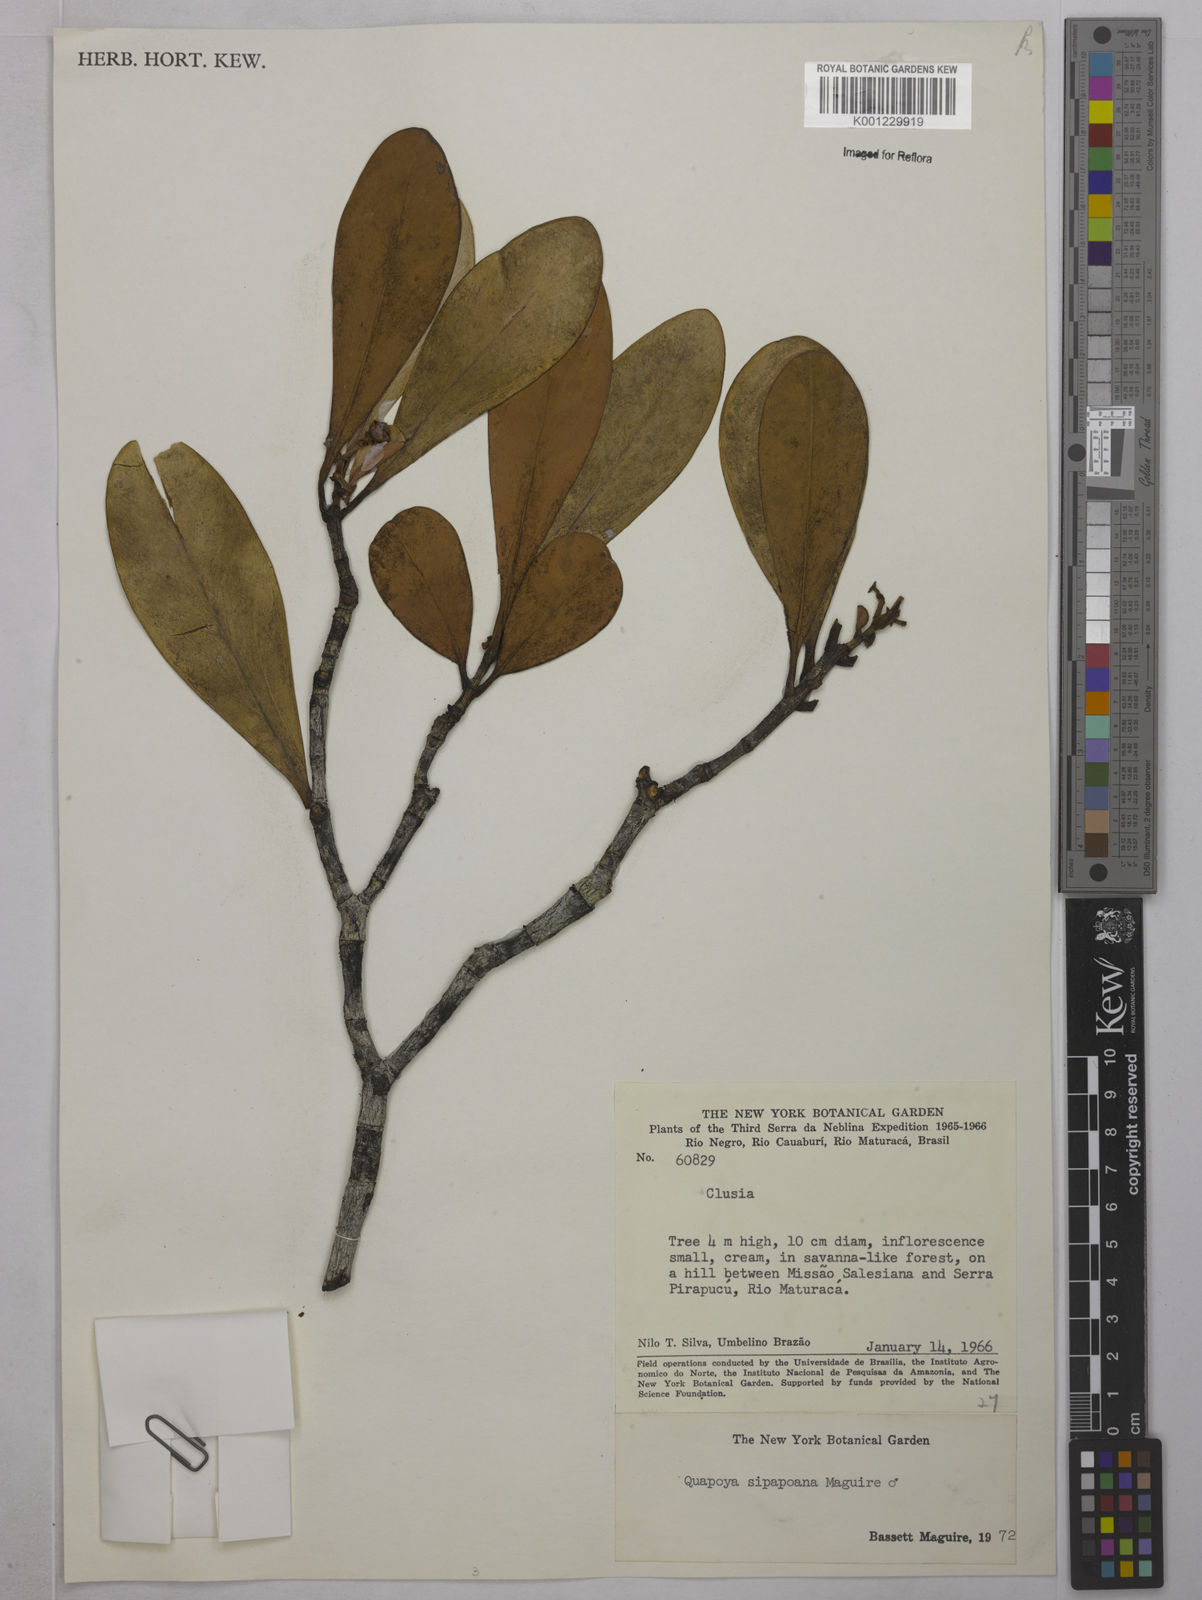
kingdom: Plantae
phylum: Tracheophyta
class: Magnoliopsida
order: Malpighiales
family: Clusiaceae
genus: Clusia
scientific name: Clusia sipapoana
